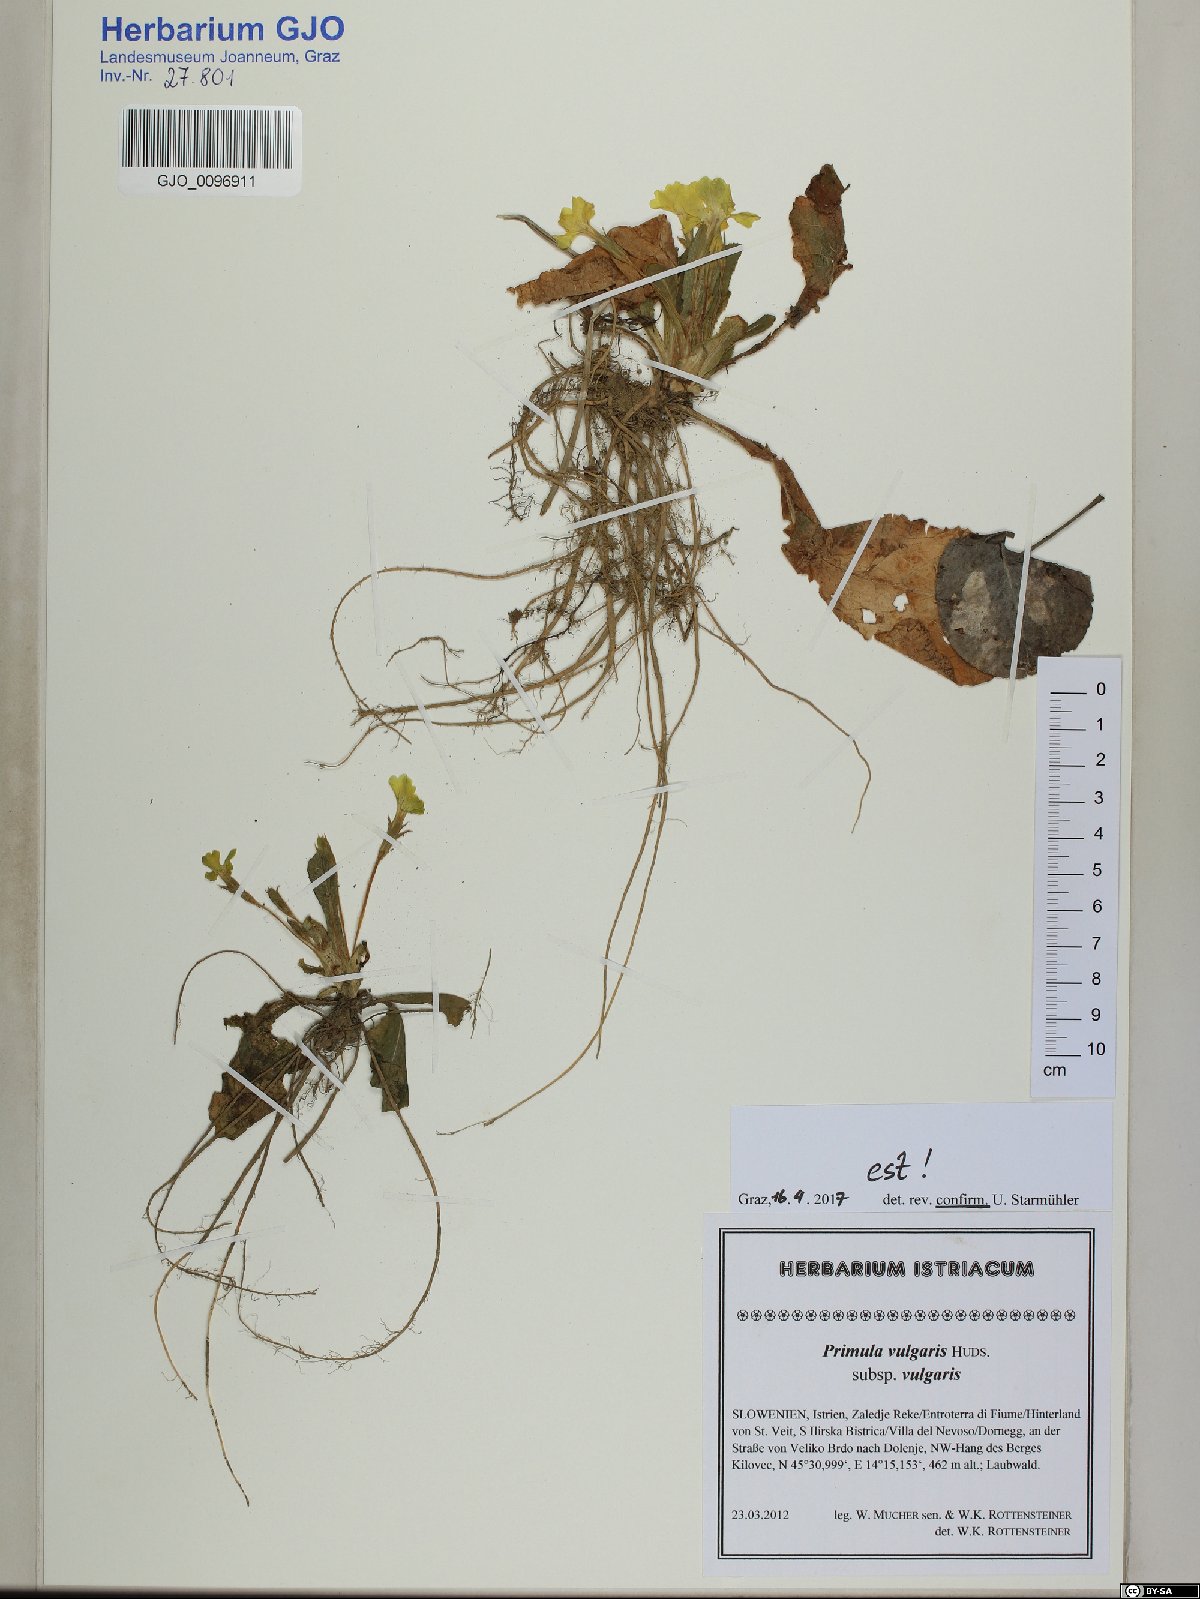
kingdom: Plantae
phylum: Tracheophyta
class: Magnoliopsida
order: Ericales
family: Primulaceae
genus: Primula
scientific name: Primula vulgaris
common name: Primrose
